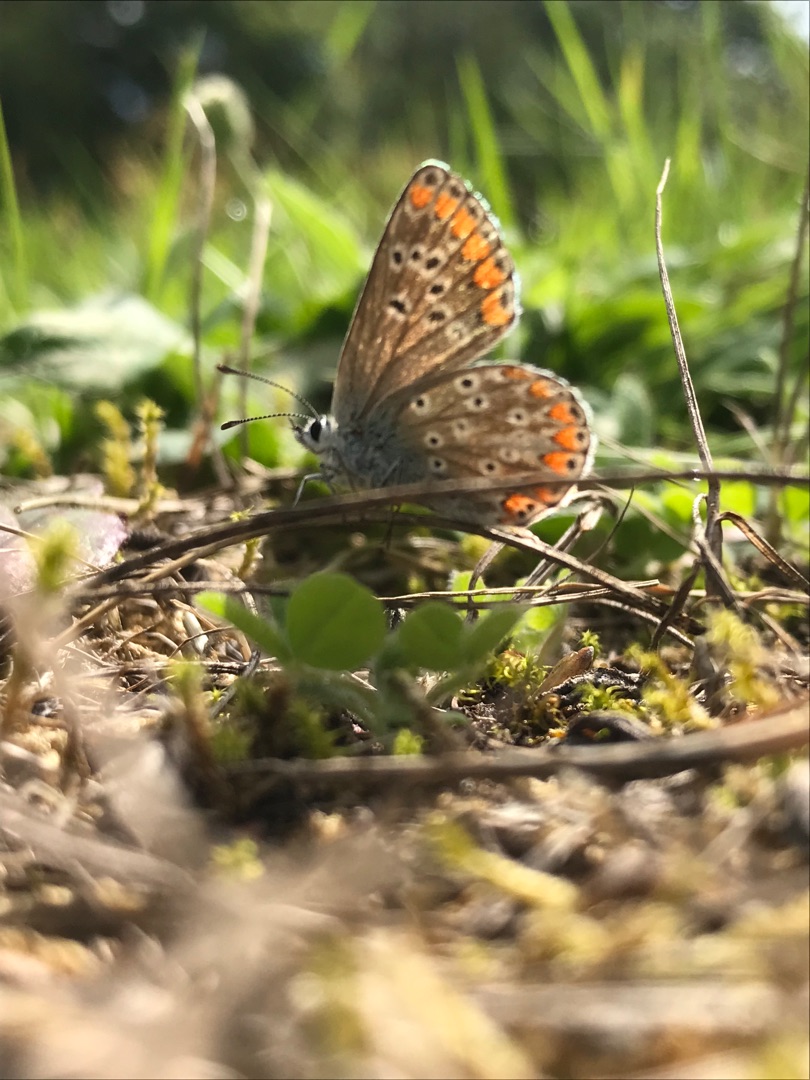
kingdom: Animalia
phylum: Arthropoda
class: Insecta
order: Lepidoptera
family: Lycaenidae
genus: Aricia
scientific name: Aricia agestis
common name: Rødplettet blåfugl
